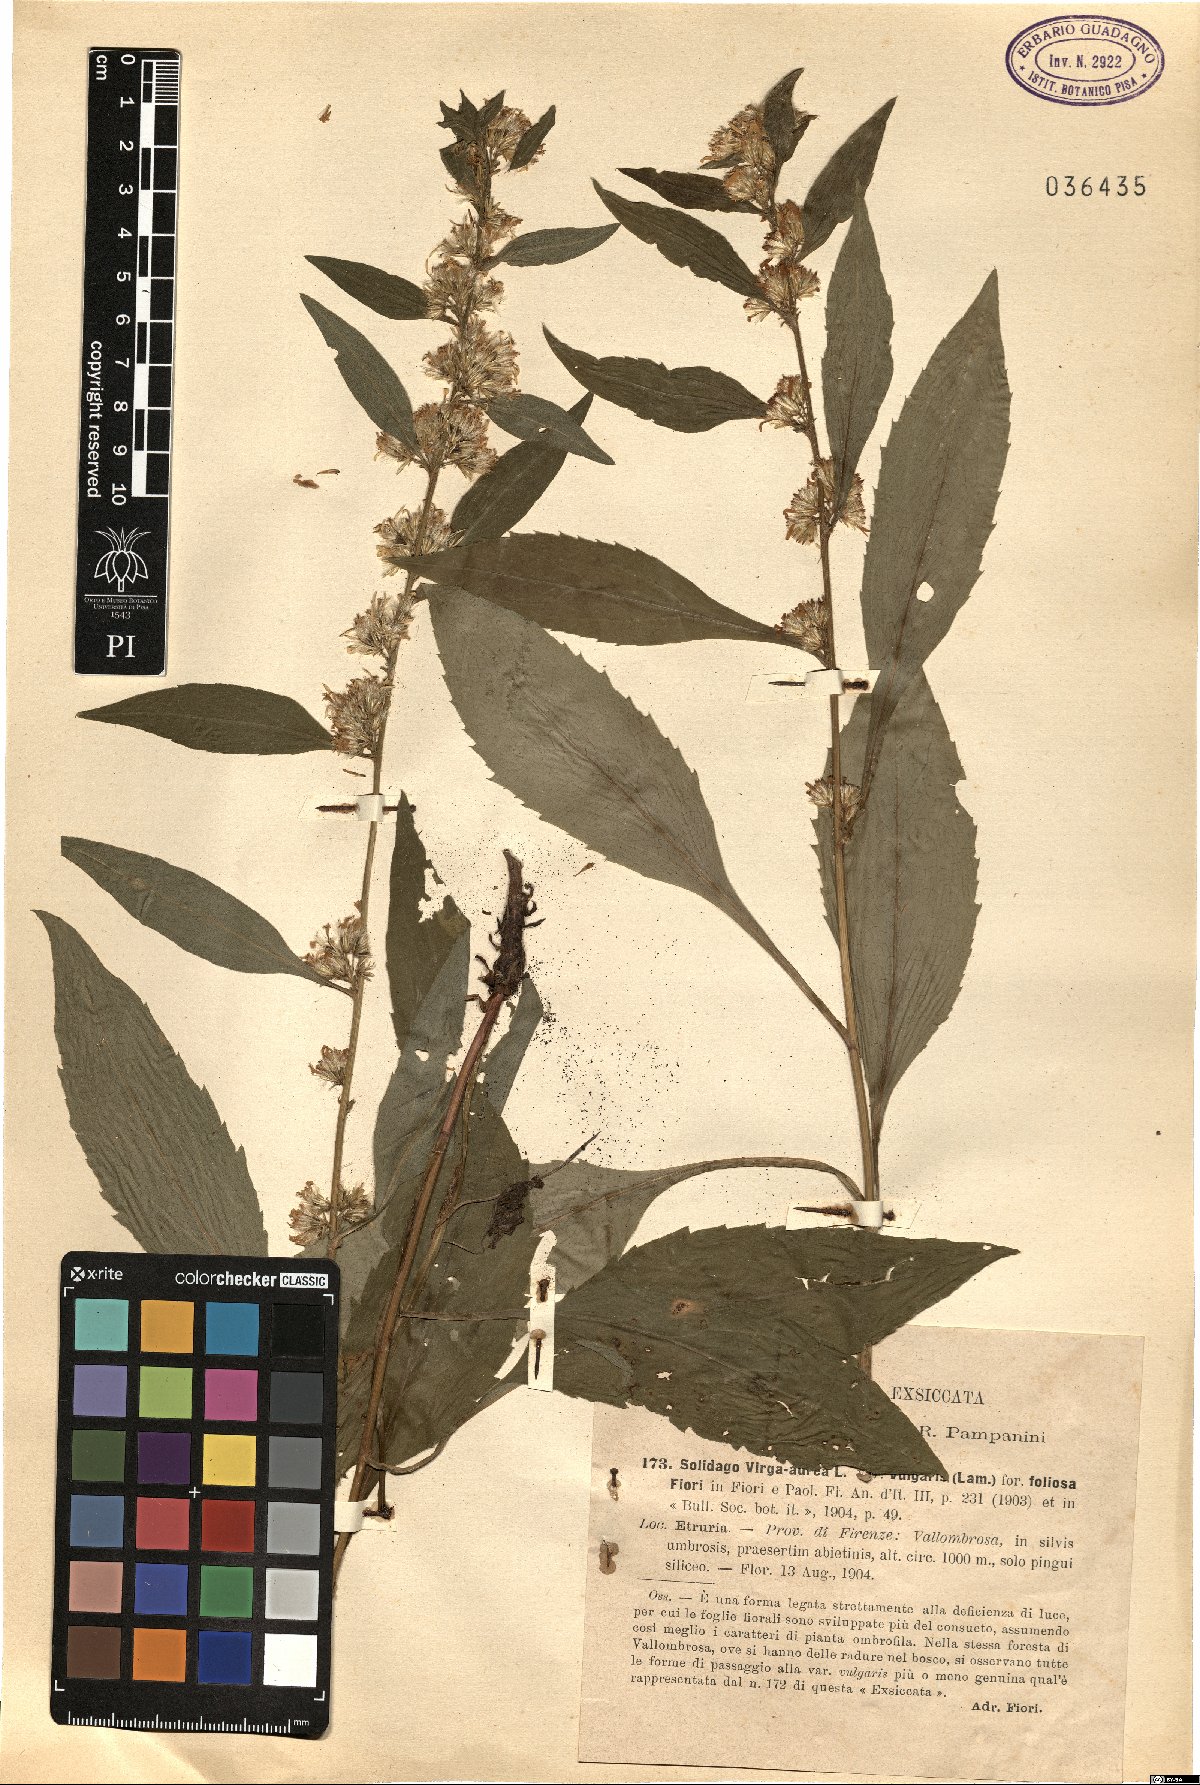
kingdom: Plantae
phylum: Tracheophyta
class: Magnoliopsida
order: Asterales
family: Asteraceae
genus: Solidago
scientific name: Solidago virgaurea
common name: Goldenrod
